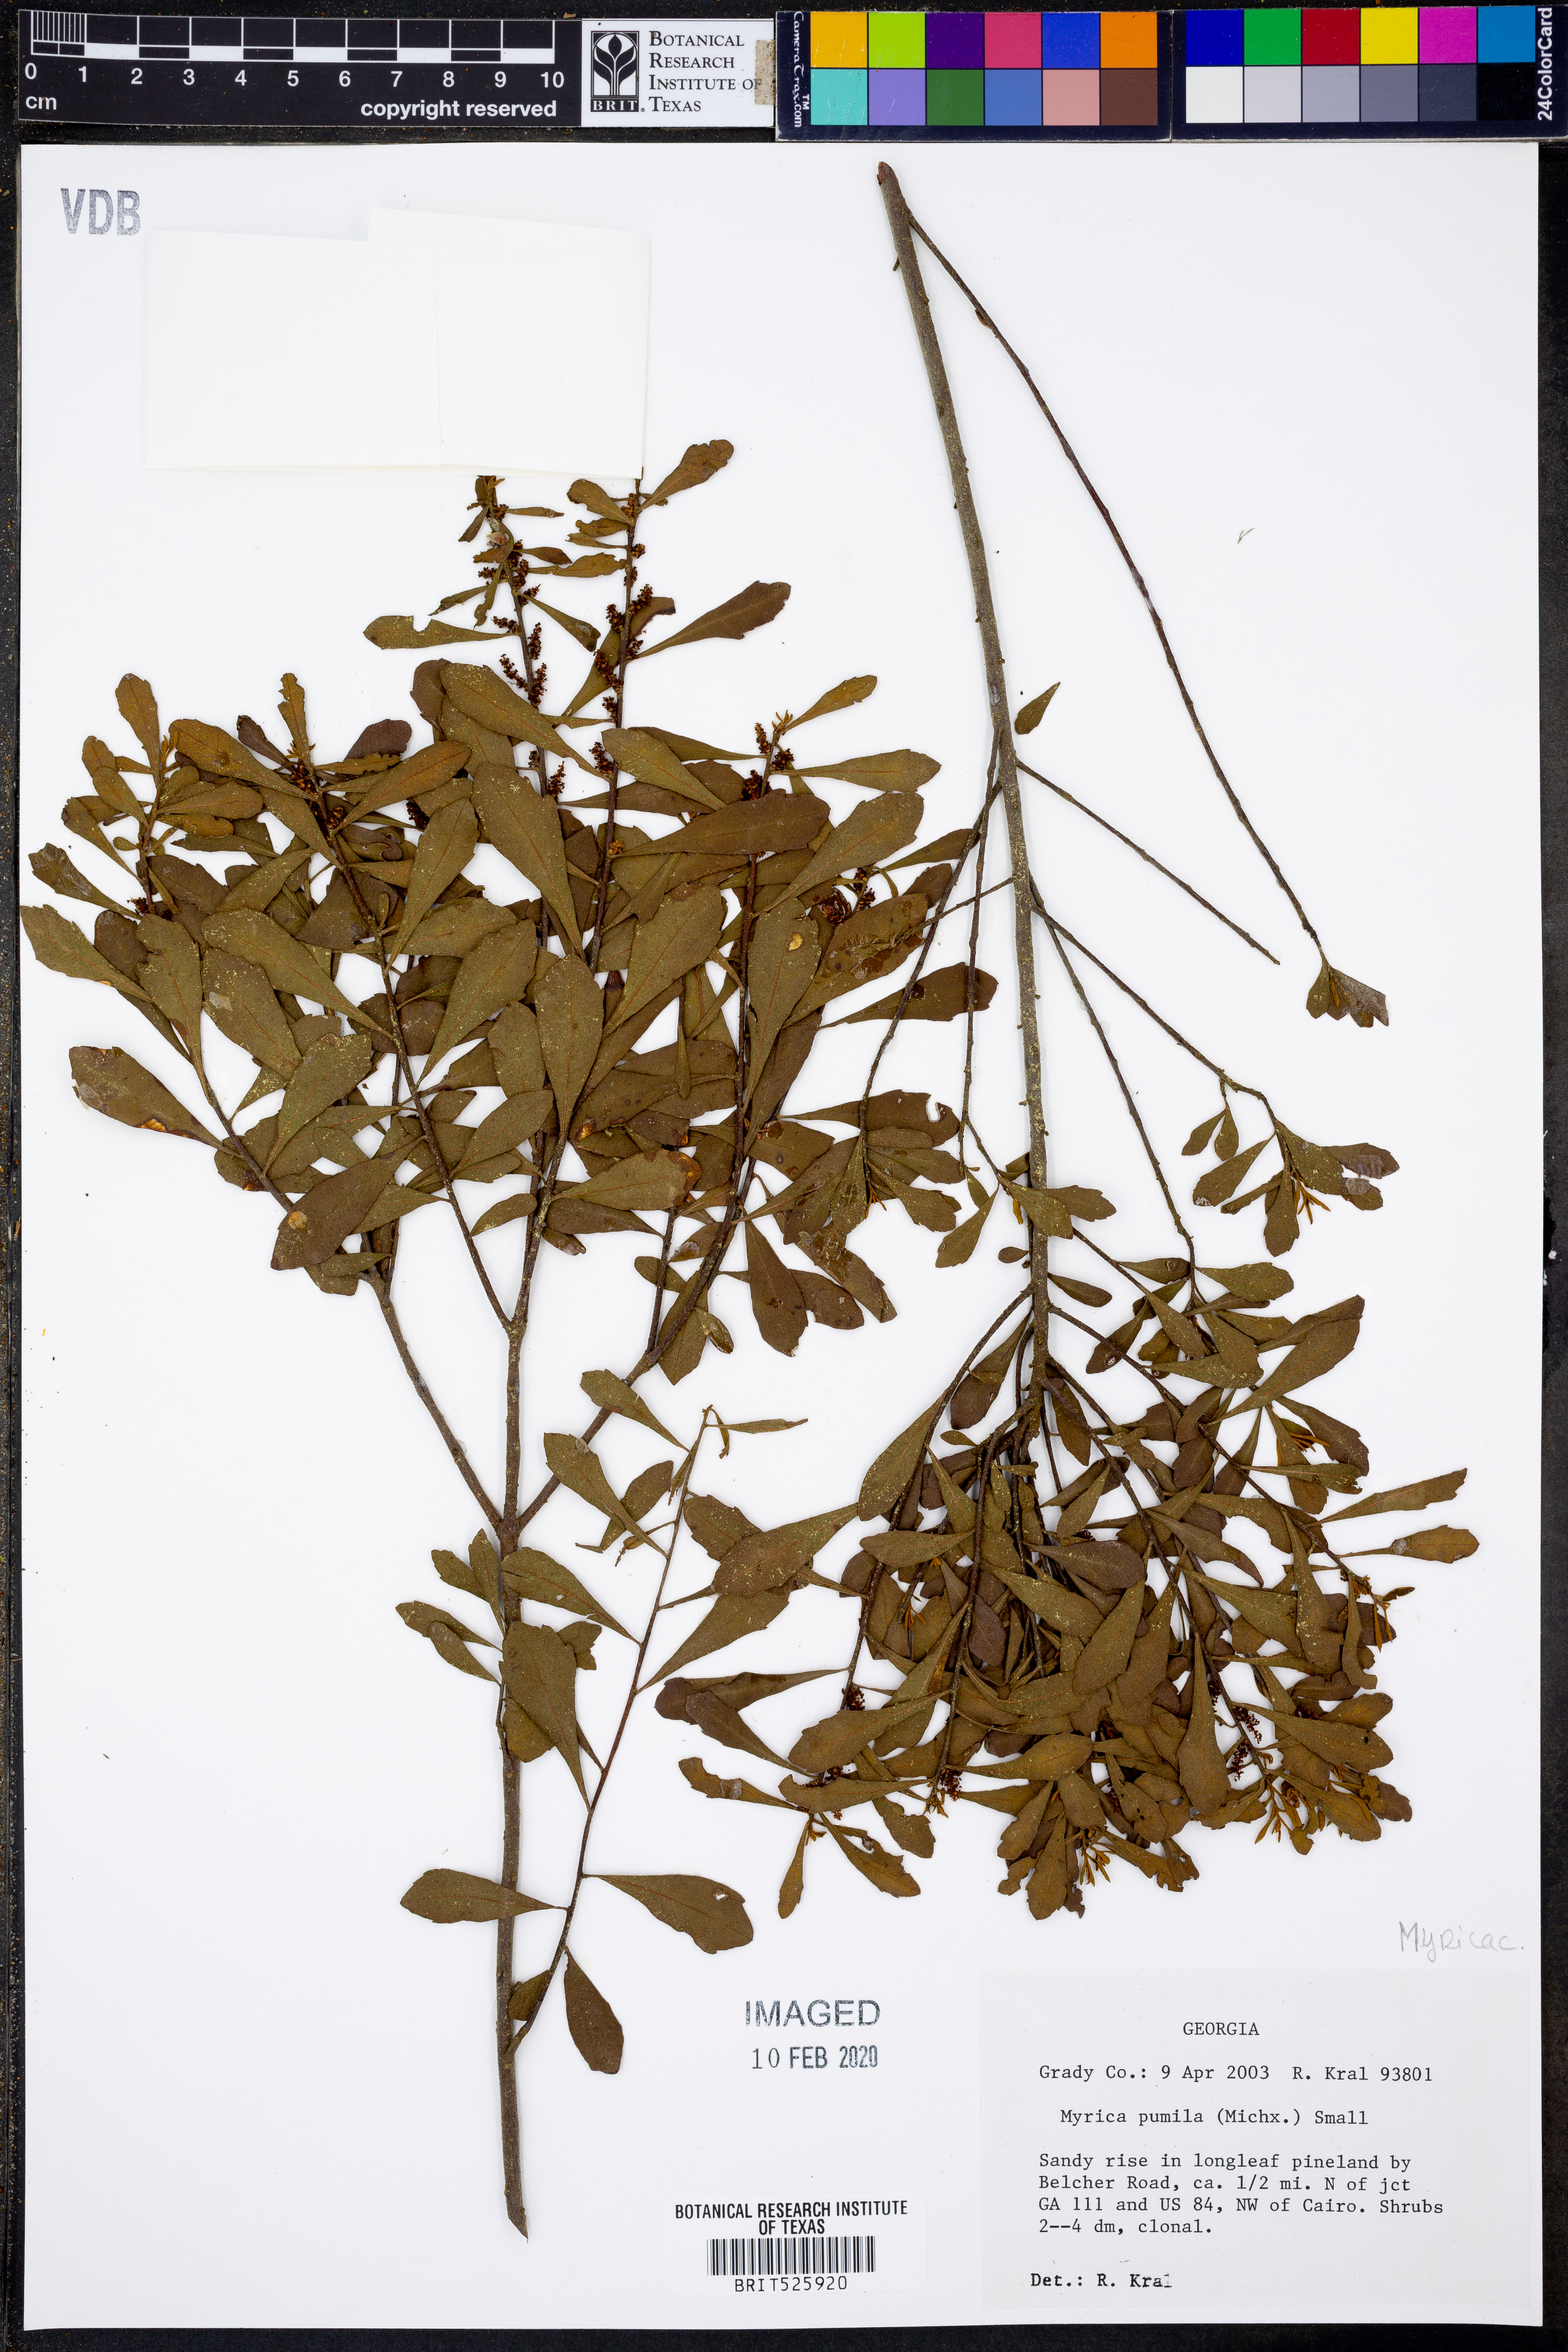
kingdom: Plantae
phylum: Tracheophyta
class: Magnoliopsida
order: Fagales
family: Myricaceae
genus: Morella
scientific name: Morella cerifera
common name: Wax myrtle
